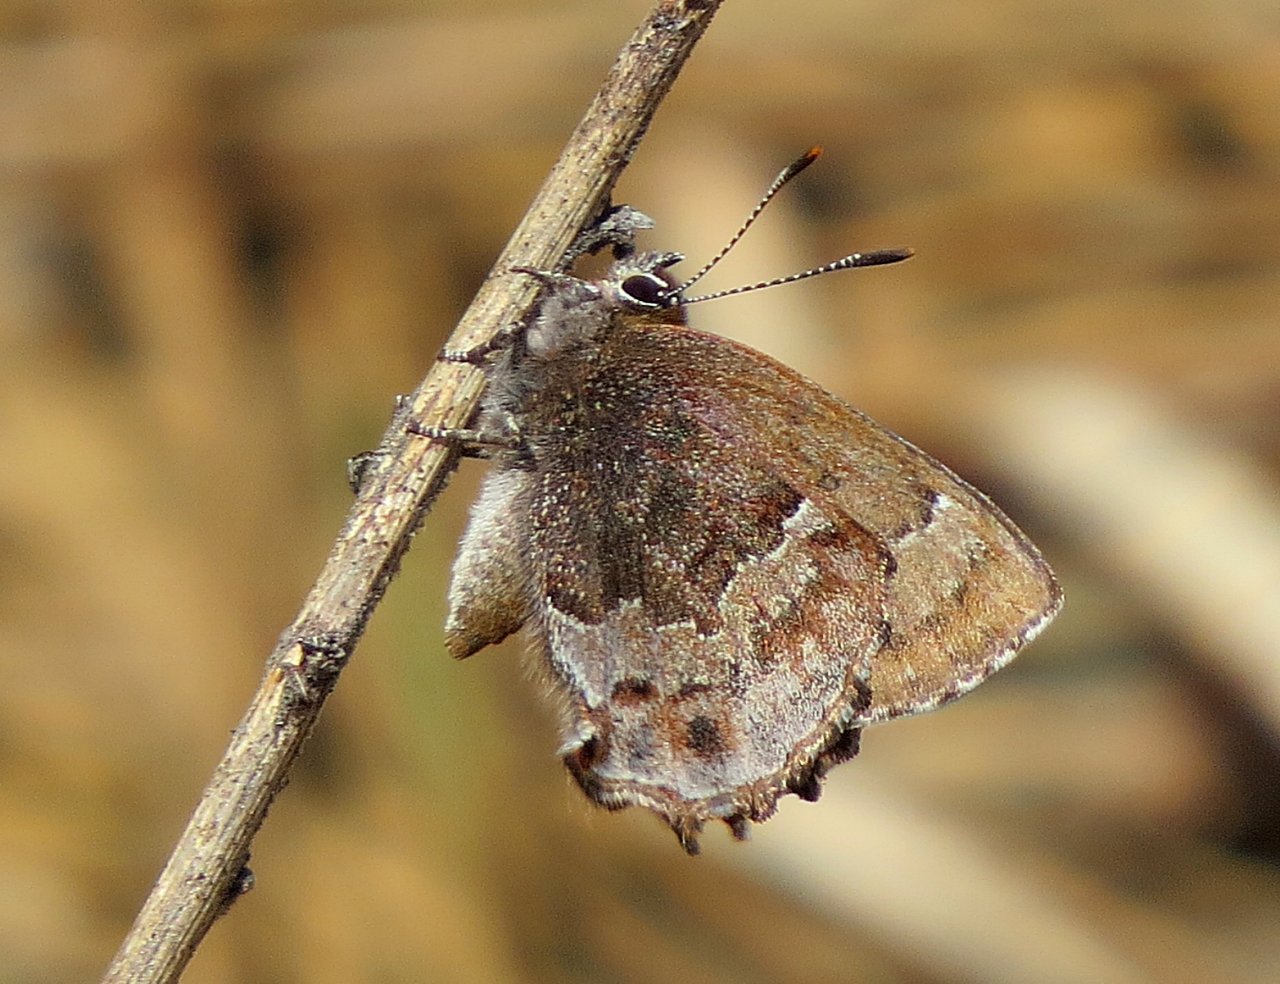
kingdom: Animalia
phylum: Arthropoda
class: Insecta
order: Lepidoptera
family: Lycaenidae
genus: Thecla
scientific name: Thecla irus
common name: Frosted Elfin
